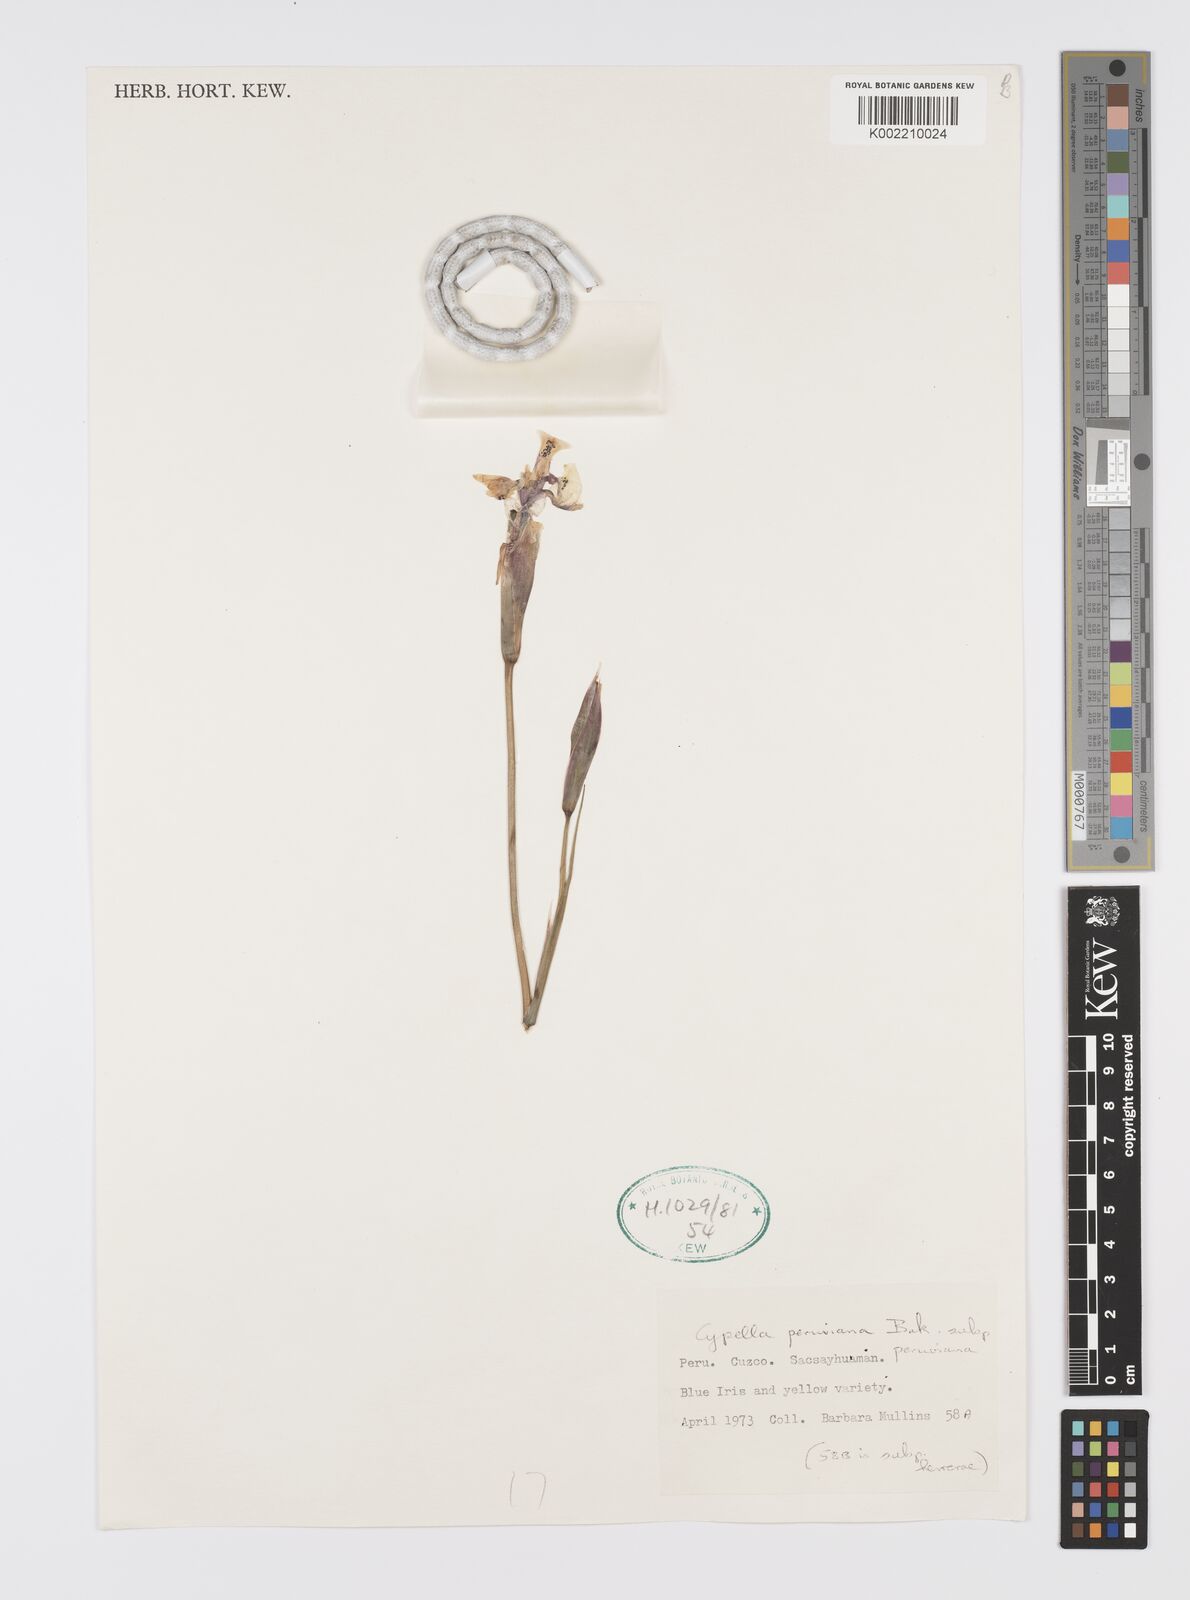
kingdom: Plantae
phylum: Tracheophyta
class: Liliopsida
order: Asparagales
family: Iridaceae
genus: Hesperoxiphion
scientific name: Hesperoxiphion peruvianum
